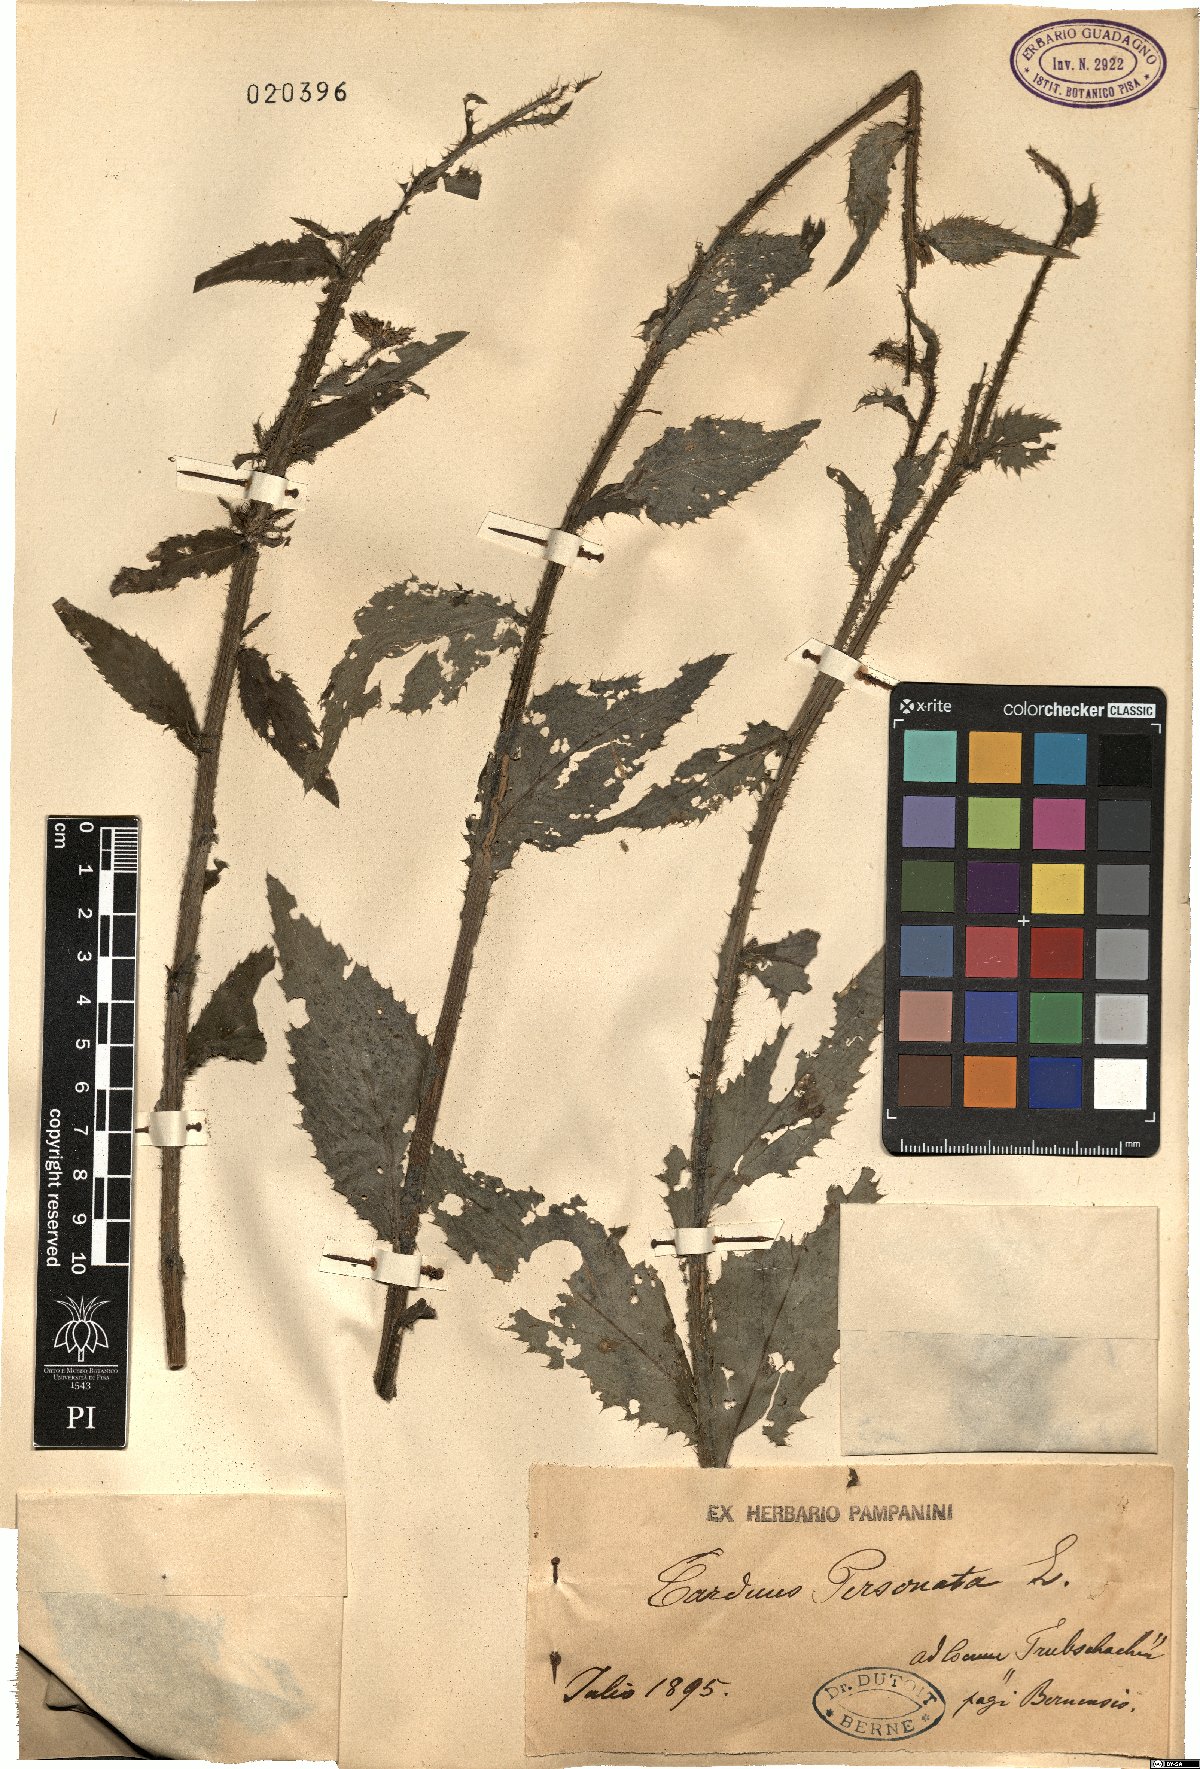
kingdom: Plantae
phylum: Tracheophyta
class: Magnoliopsida
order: Asterales
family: Asteraceae
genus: Carduus
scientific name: Carduus personata
